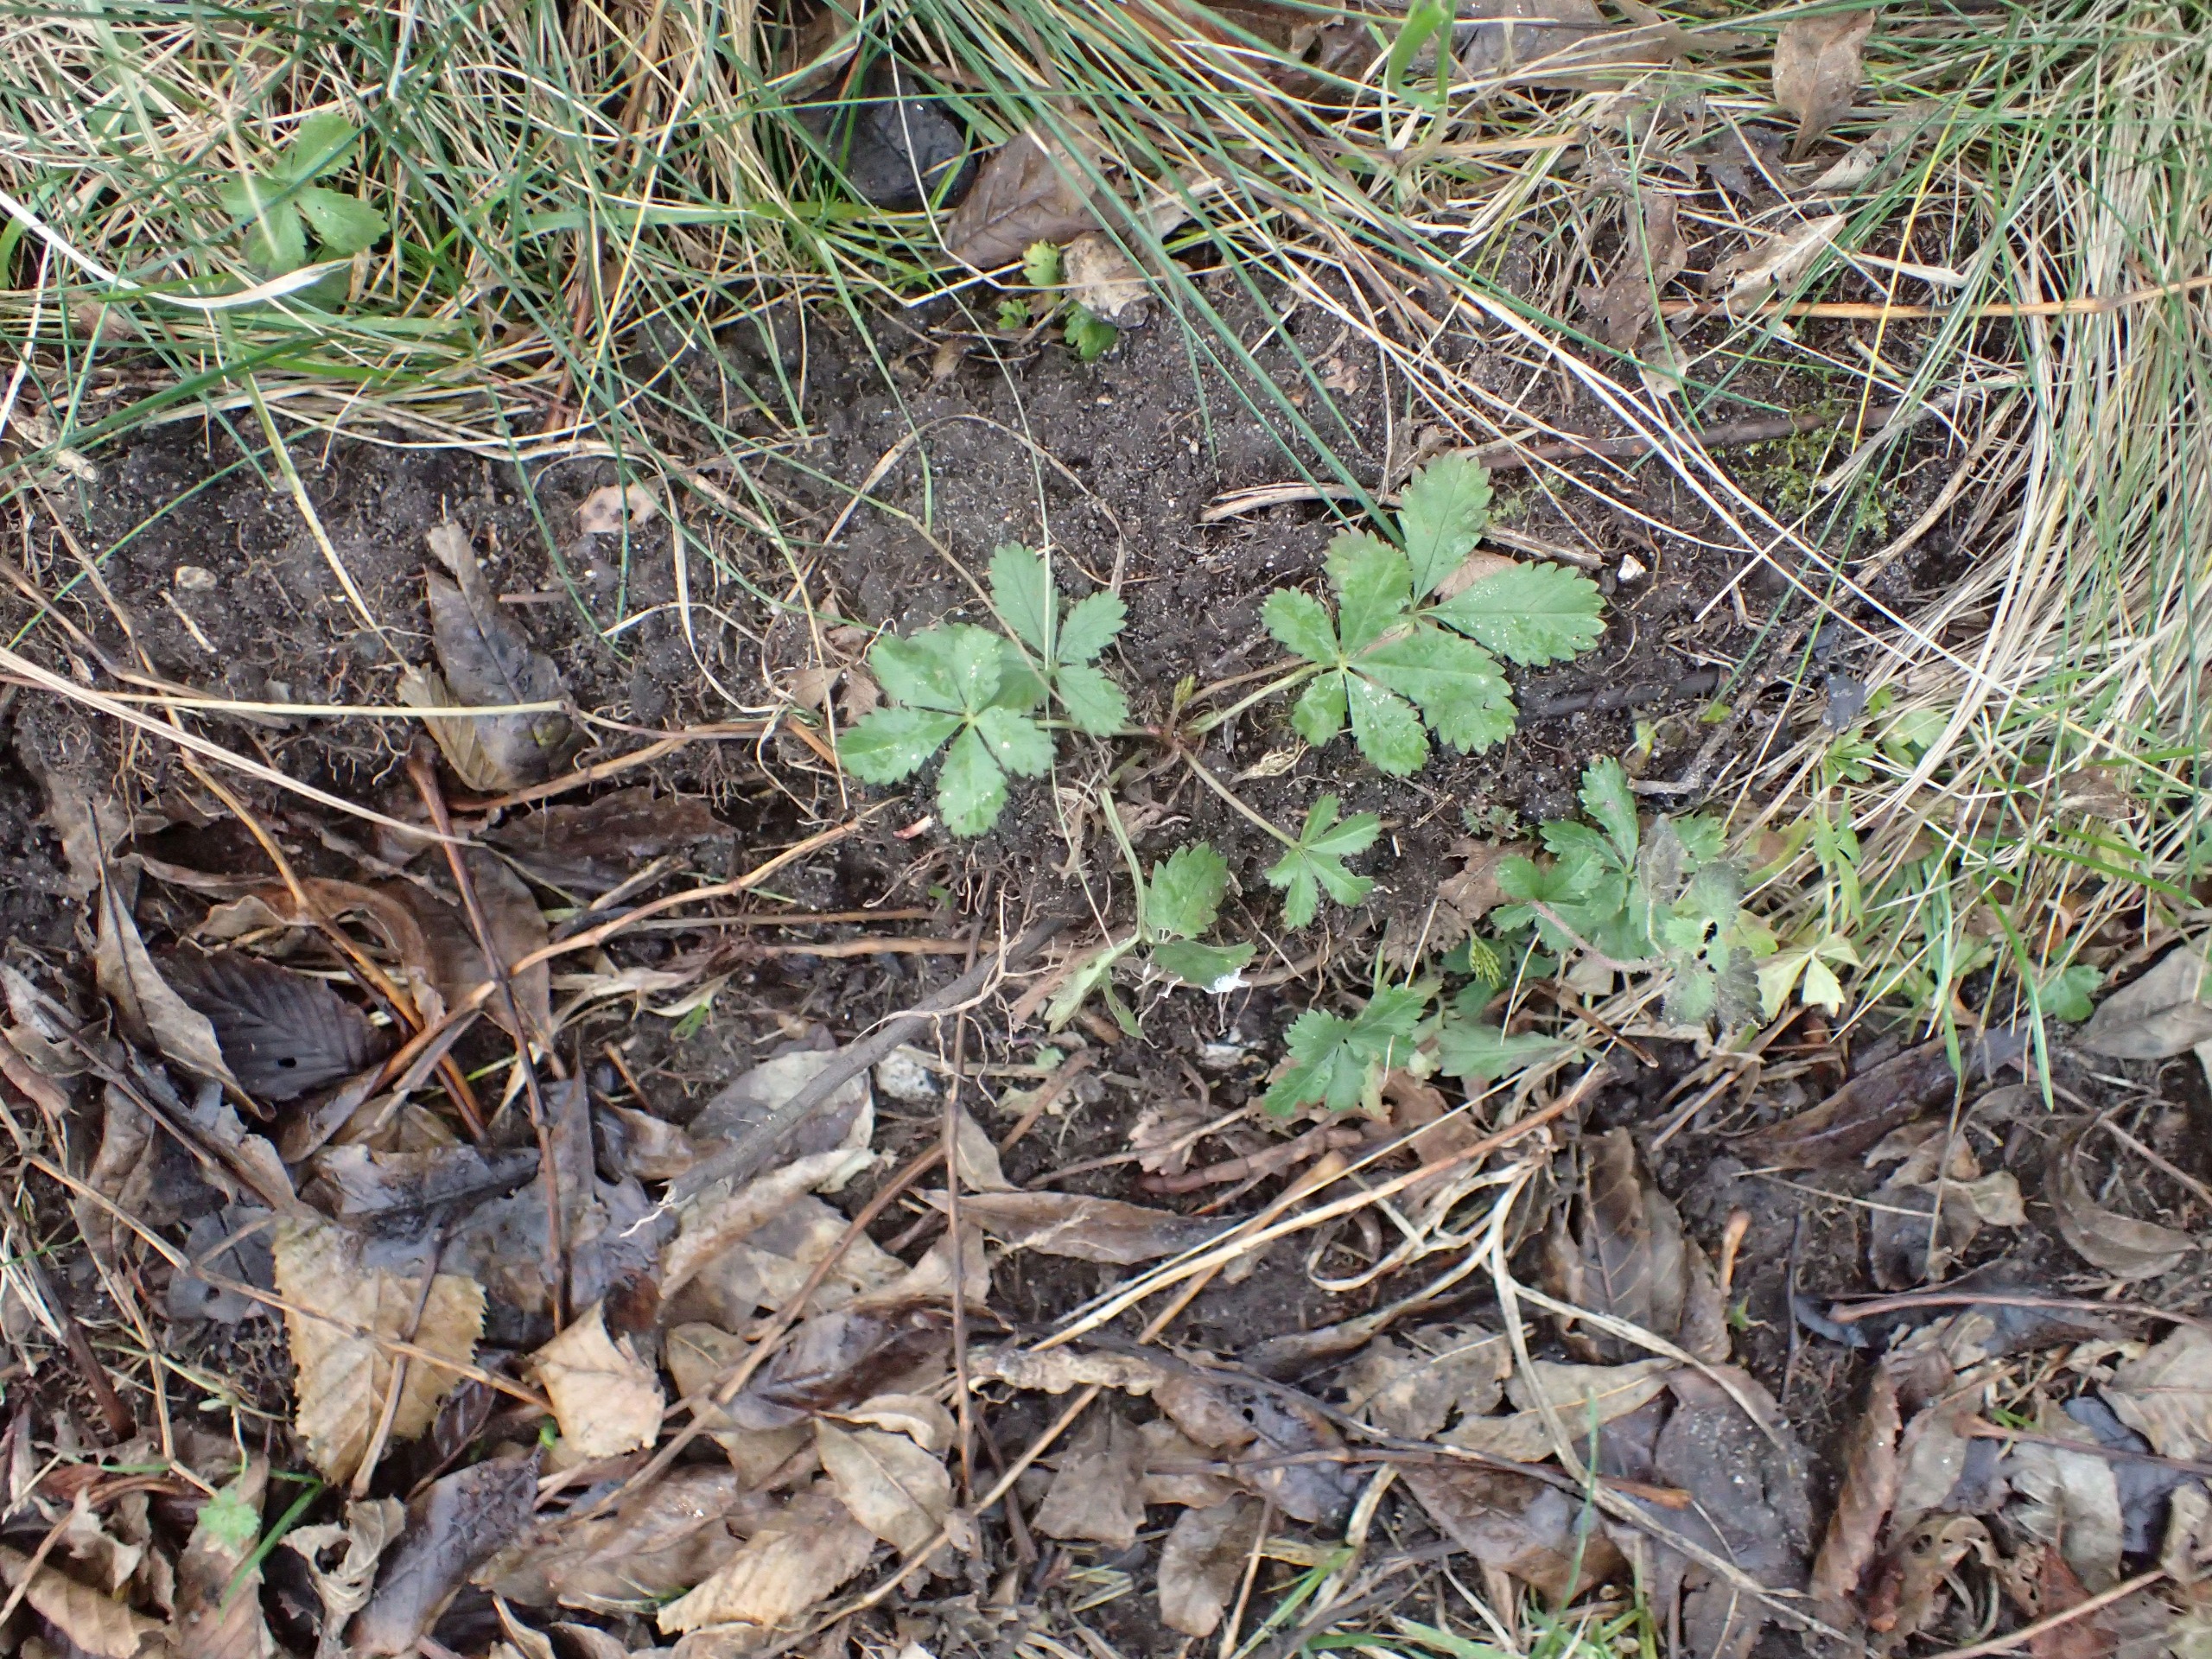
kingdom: Plantae
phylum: Tracheophyta
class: Magnoliopsida
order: Rosales
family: Rosaceae
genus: Potentilla
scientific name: Potentilla reptans
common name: Krybende potentil
